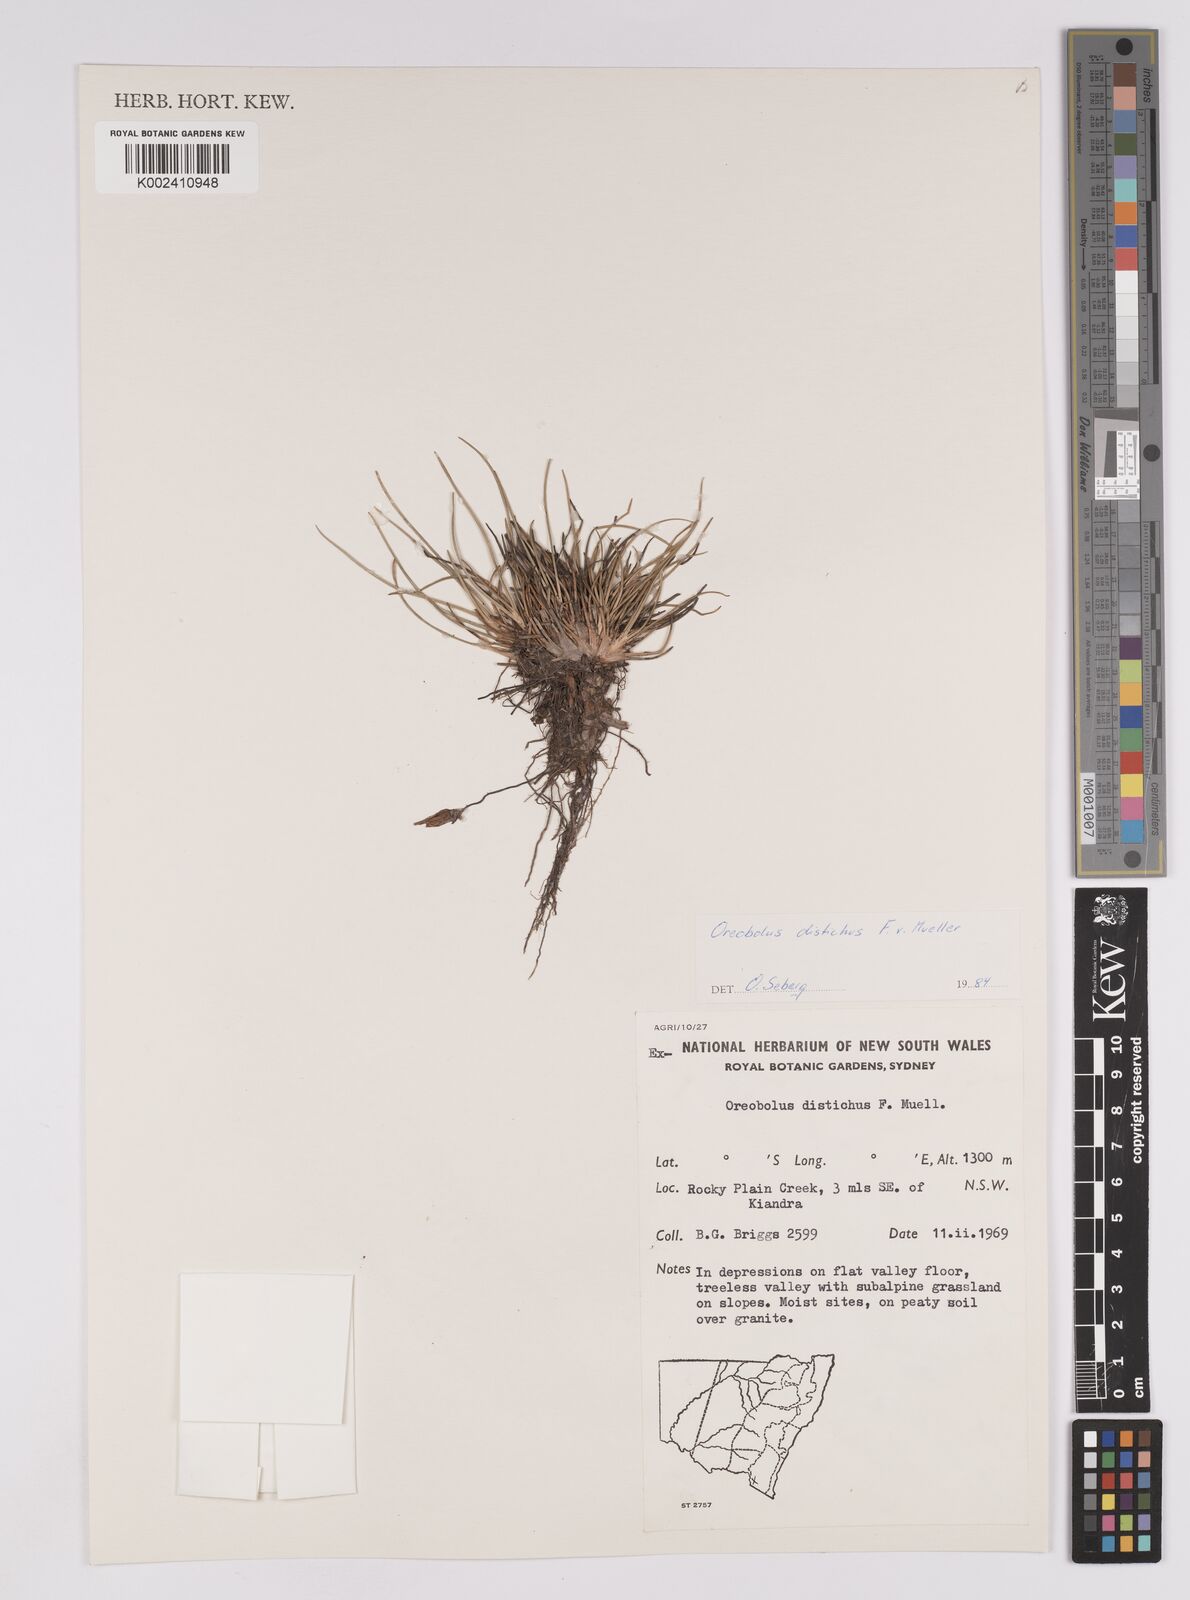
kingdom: Plantae
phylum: Tracheophyta
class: Liliopsida
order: Poales
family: Cyperaceae
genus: Oreobolus
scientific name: Oreobolus distichus
